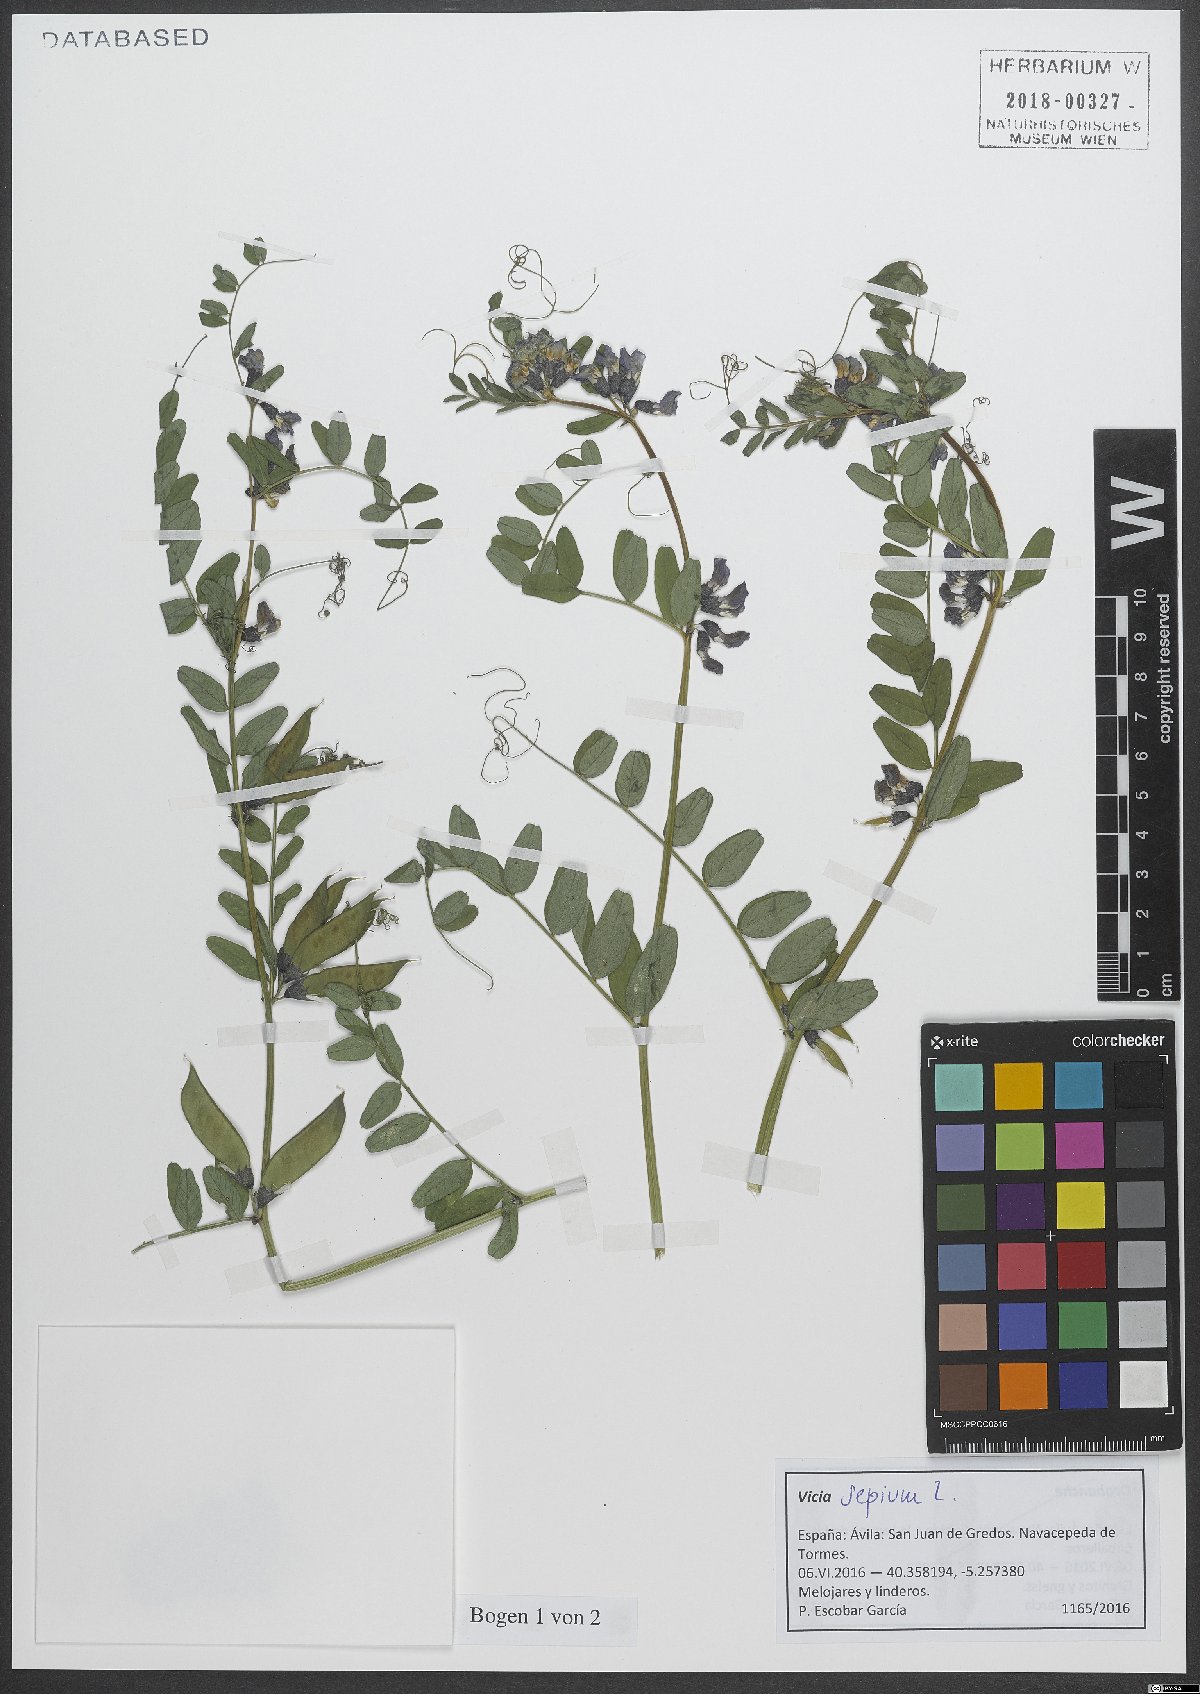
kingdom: Plantae
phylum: Tracheophyta
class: Magnoliopsida
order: Fabales
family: Fabaceae
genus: Vicia
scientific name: Vicia sepium
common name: Bush vetch
